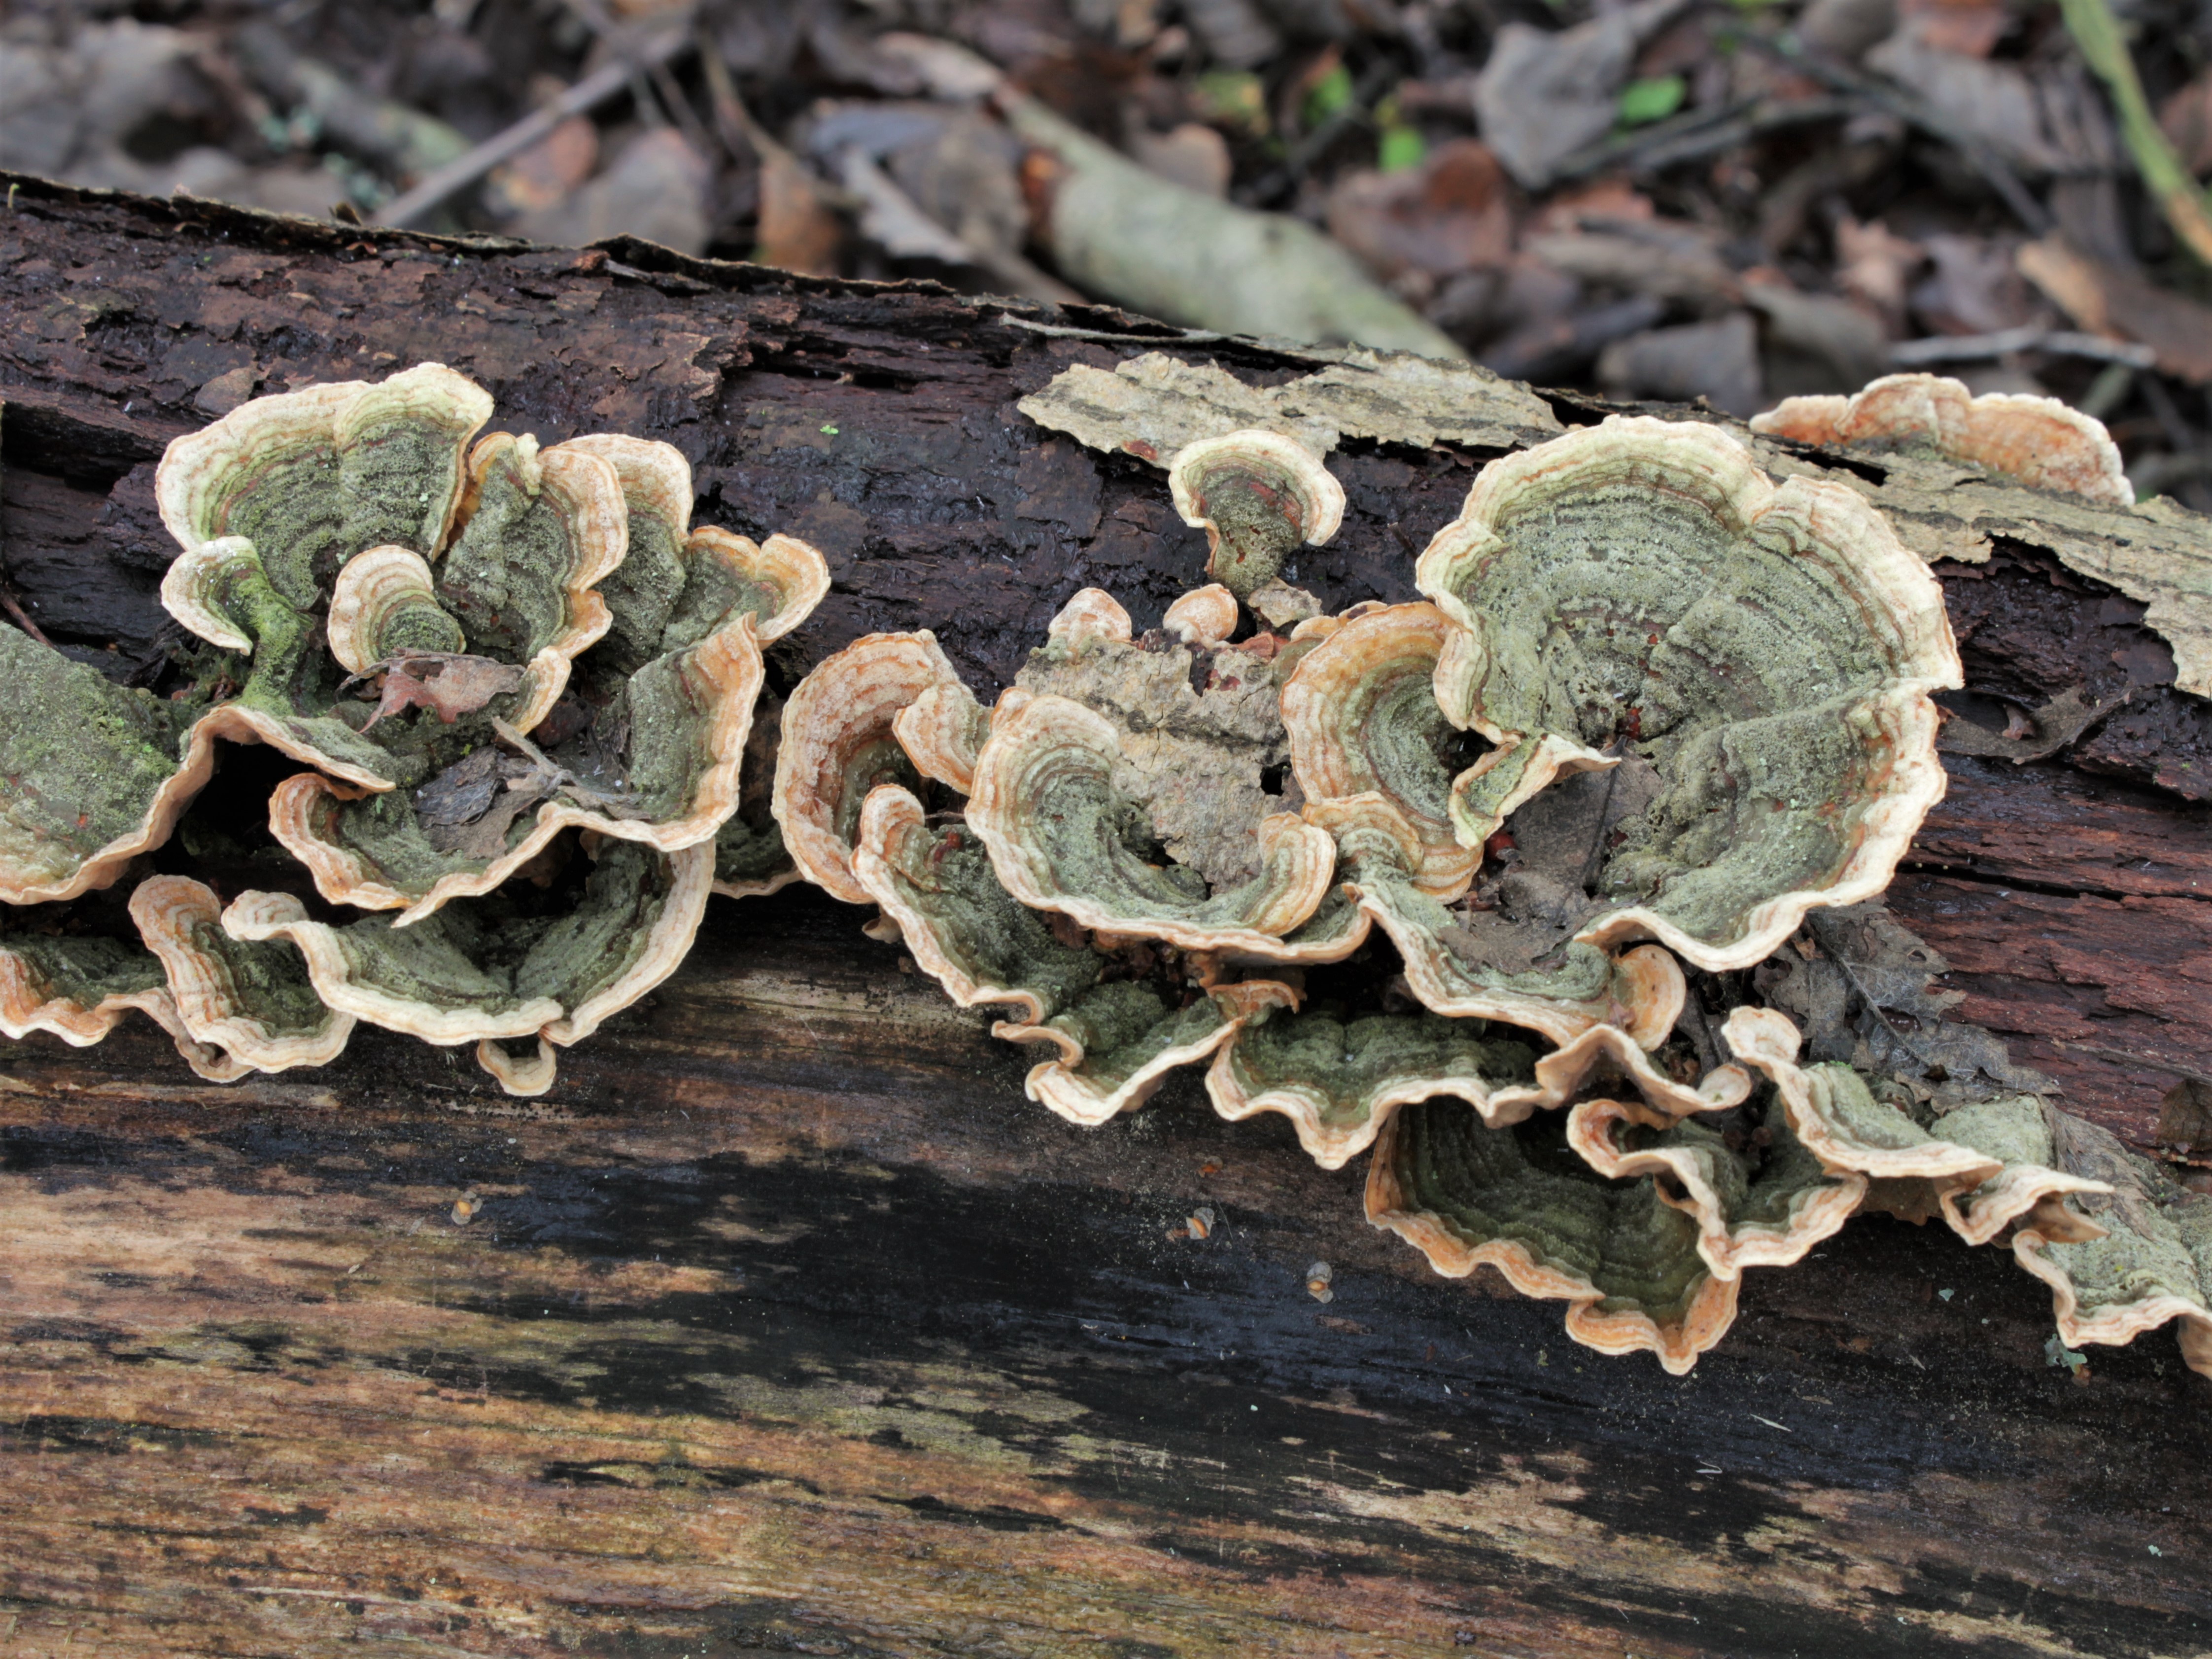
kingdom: Fungi
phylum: Basidiomycota
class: Agaricomycetes
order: Russulales
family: Stereaceae
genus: Stereum
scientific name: Stereum subtomentosum
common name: Yellowing curtain crust
